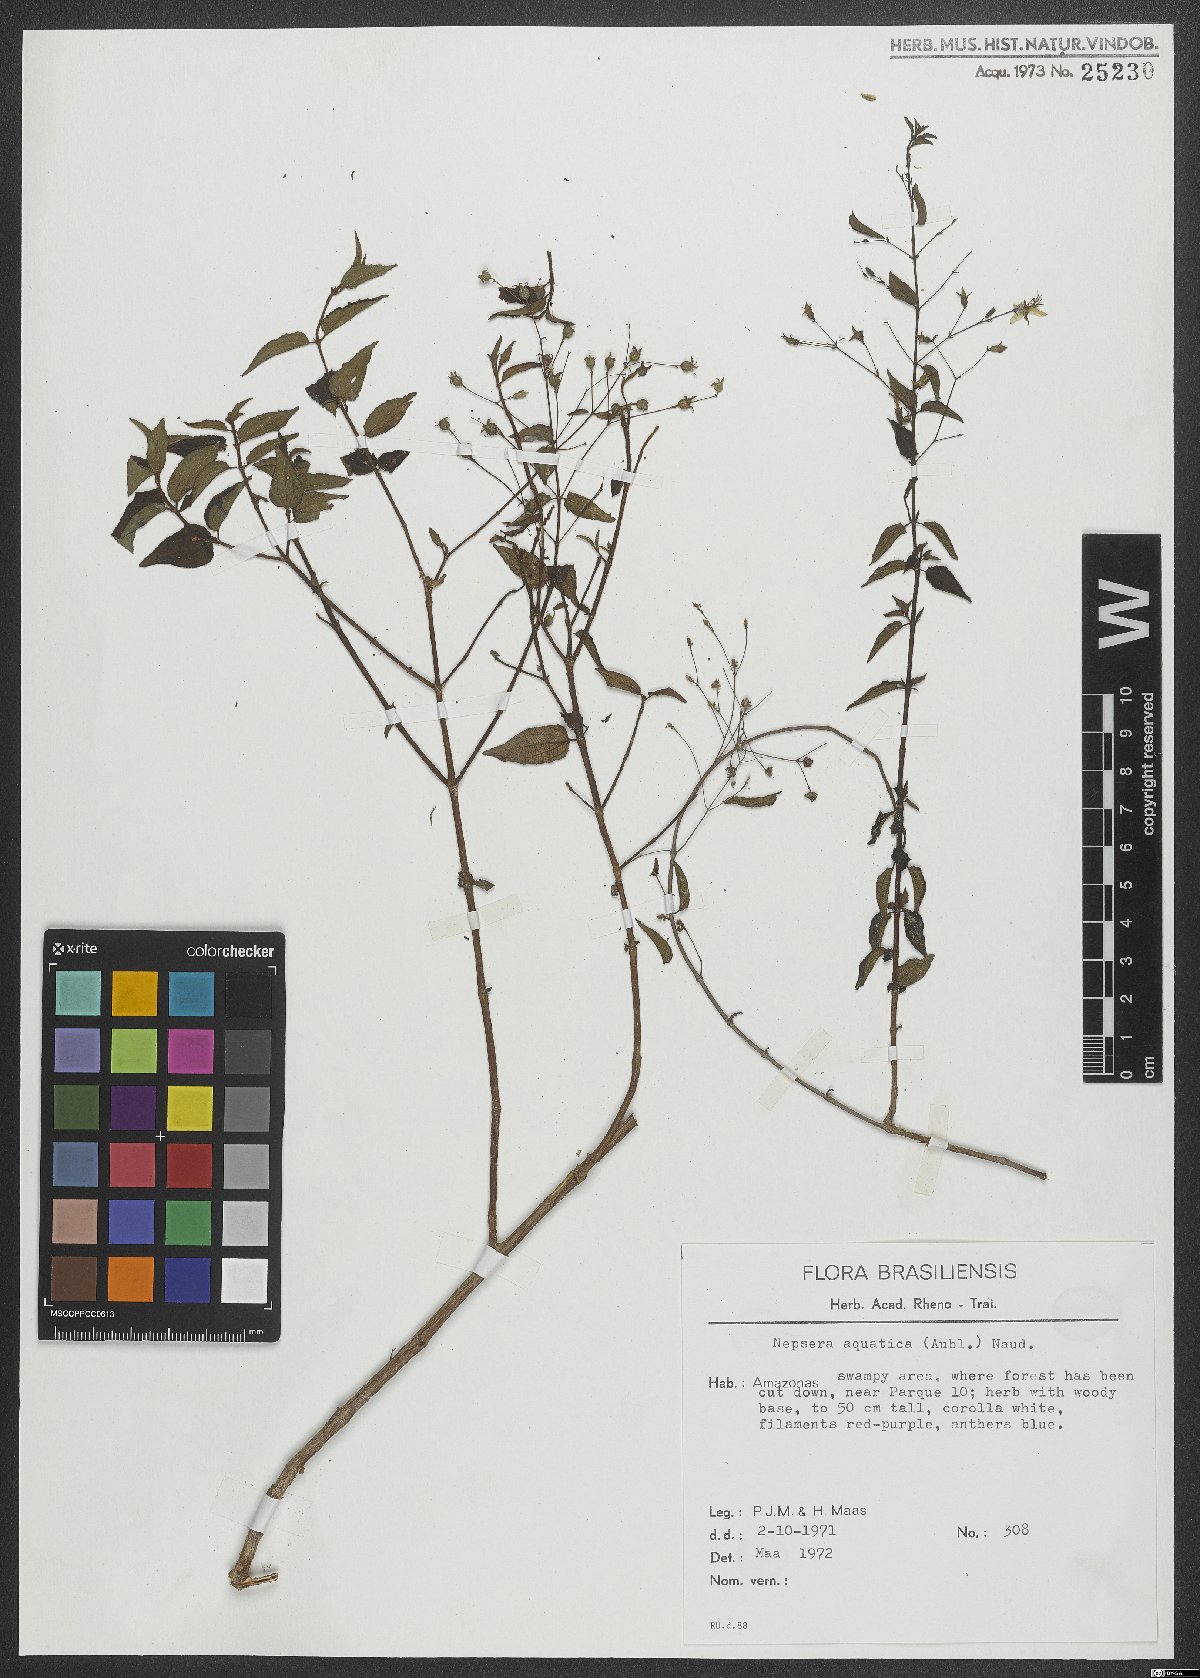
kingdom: Plantae
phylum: Tracheophyta
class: Magnoliopsida
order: Myrtales
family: Melastomataceae
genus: Nepsera
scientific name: Nepsera aquatica
